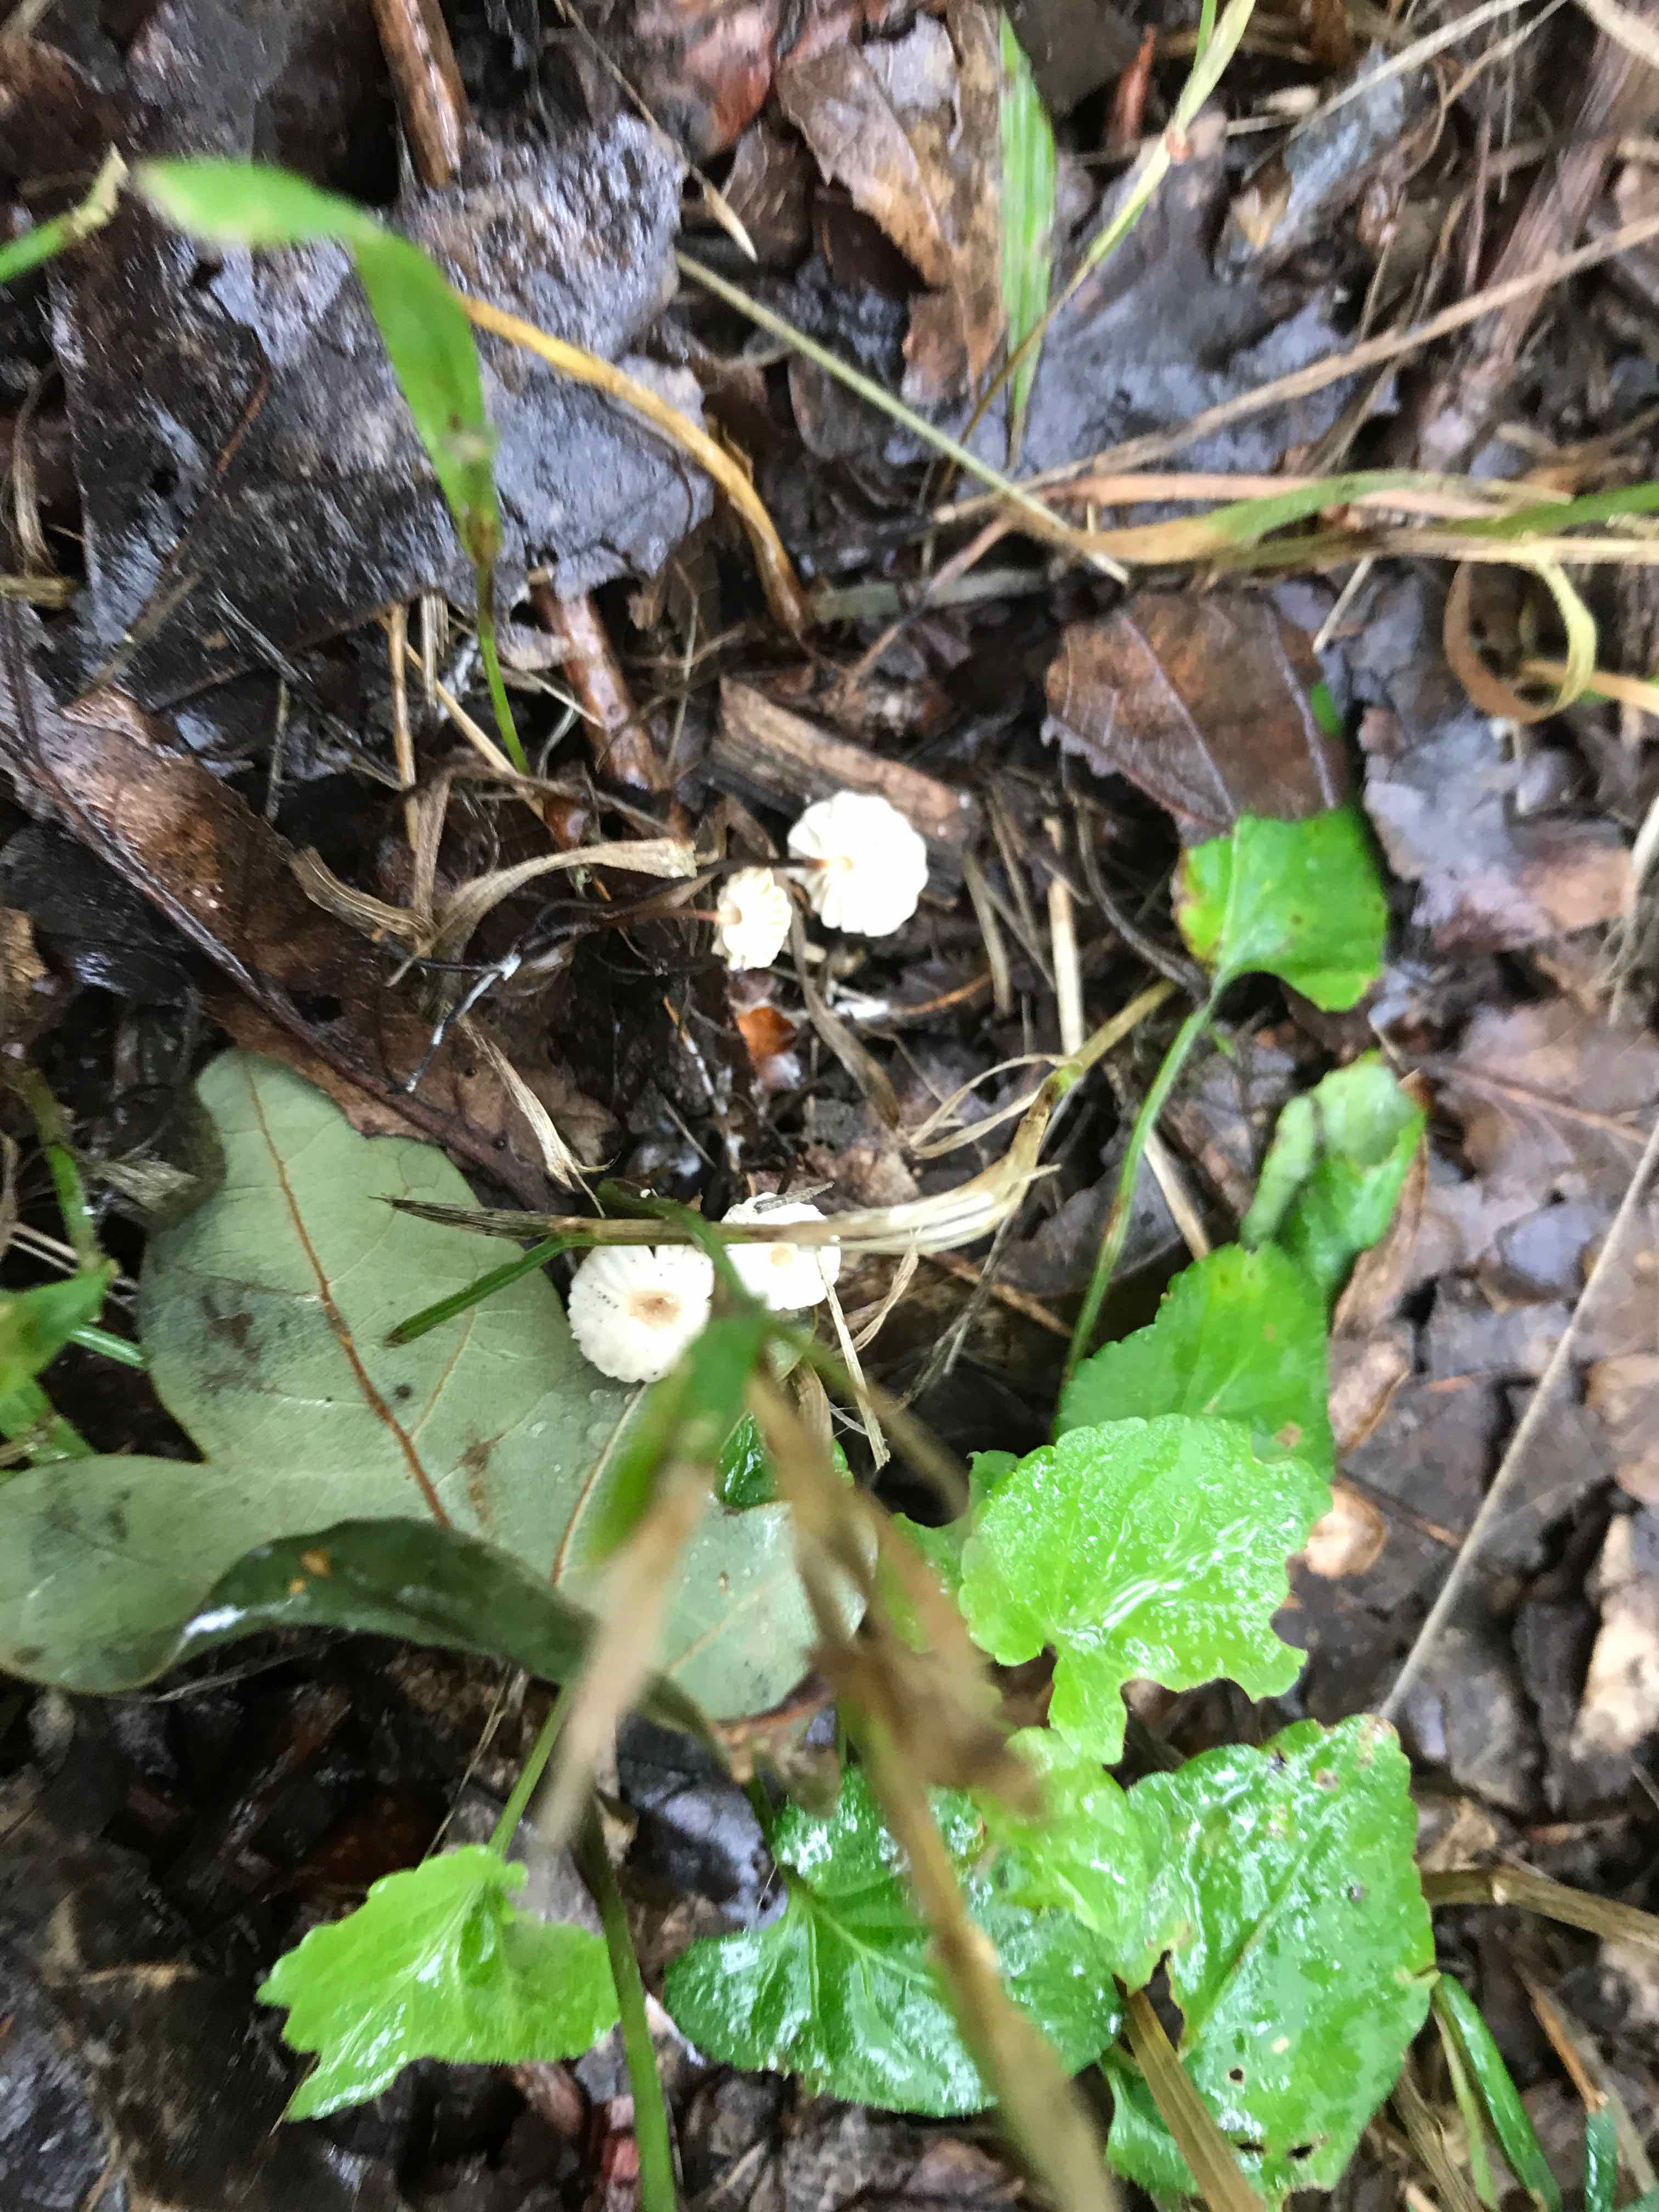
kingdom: Fungi
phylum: Basidiomycota
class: Agaricomycetes
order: Agaricales
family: Marasmiaceae
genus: Marasmius
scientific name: Marasmius rotula
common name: hjul-bruskhat
